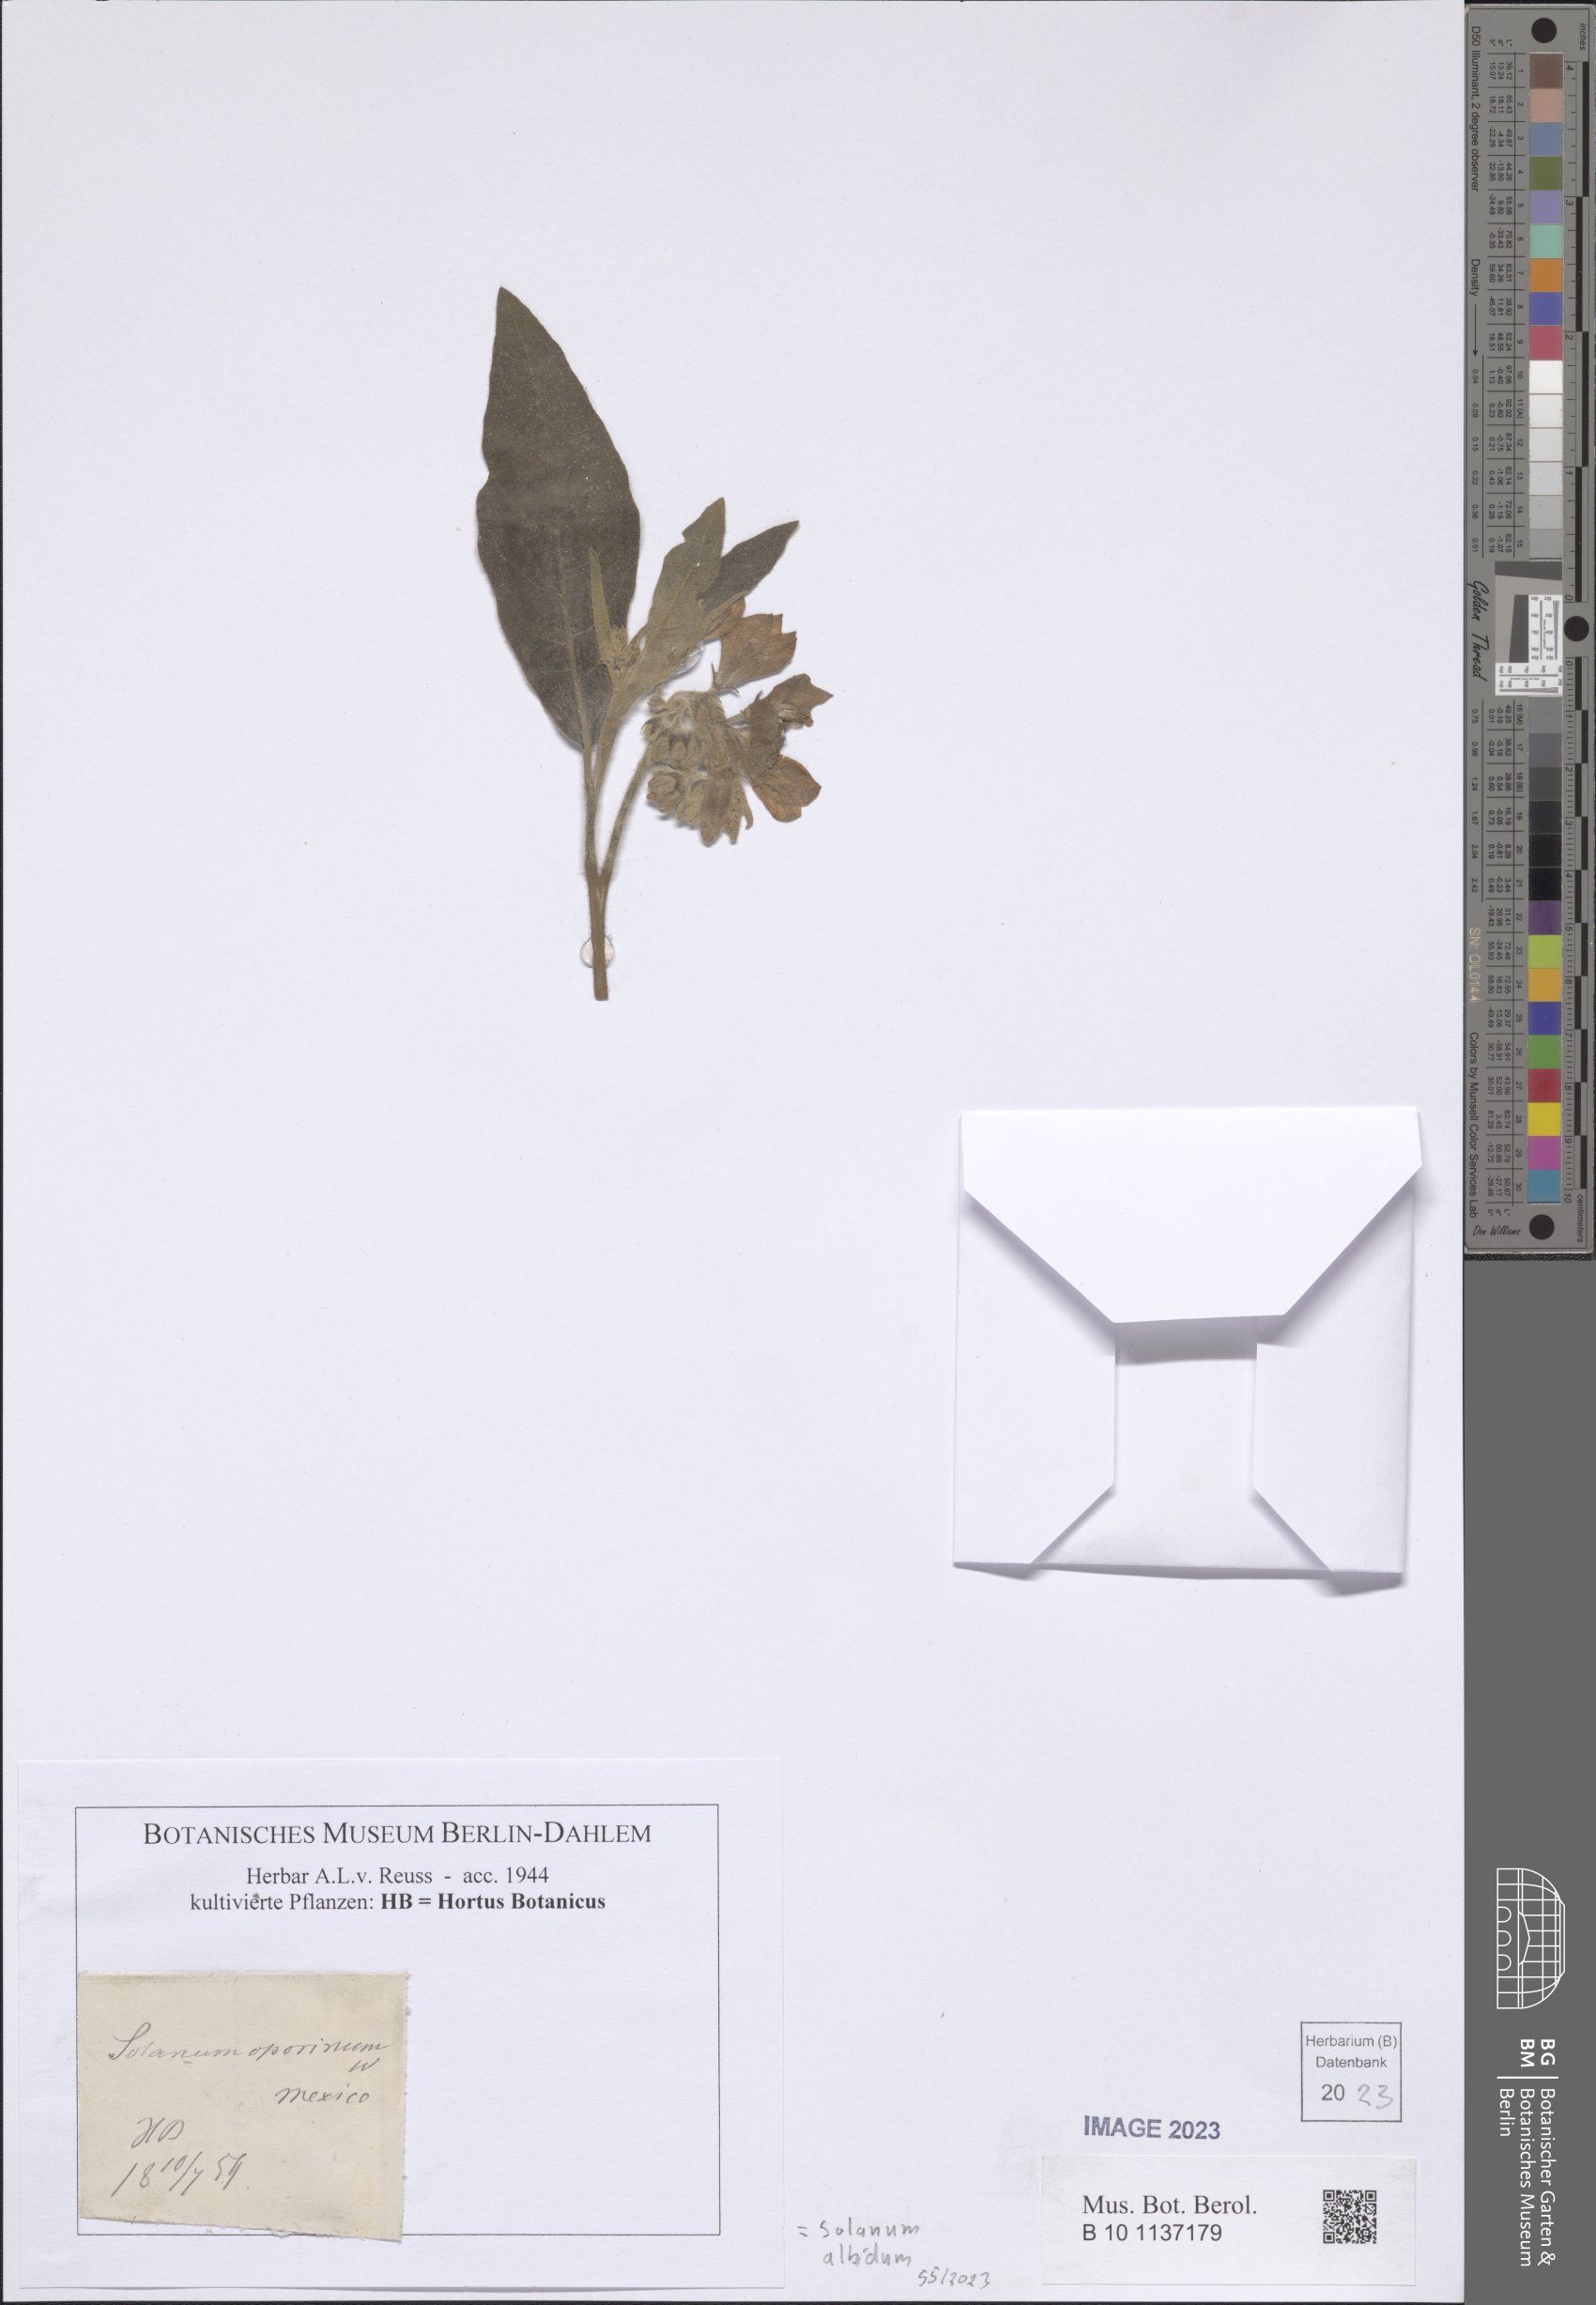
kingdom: Plantae
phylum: Tracheophyta
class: Magnoliopsida
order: Solanales
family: Solanaceae
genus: Solanum
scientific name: Solanum albidum
